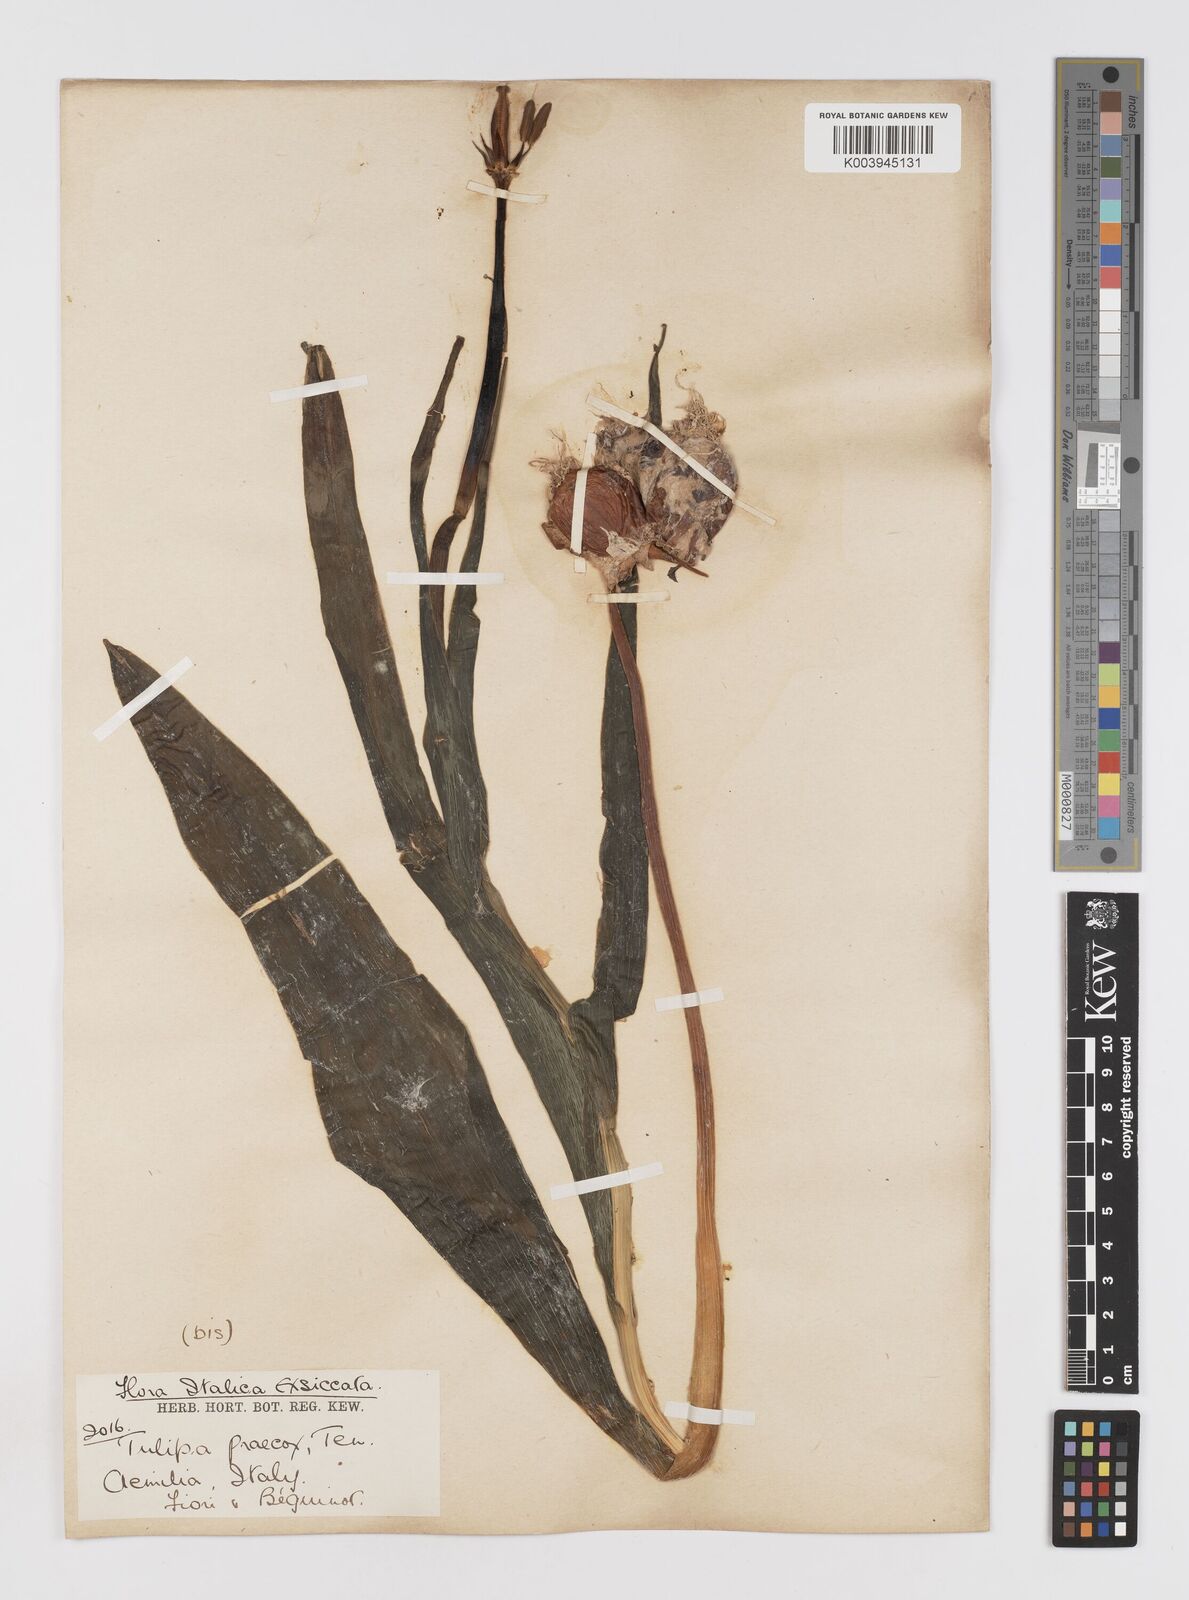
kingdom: Plantae
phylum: Tracheophyta
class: Liliopsida
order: Liliales
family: Liliaceae
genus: Tulipa
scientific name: Tulipa
